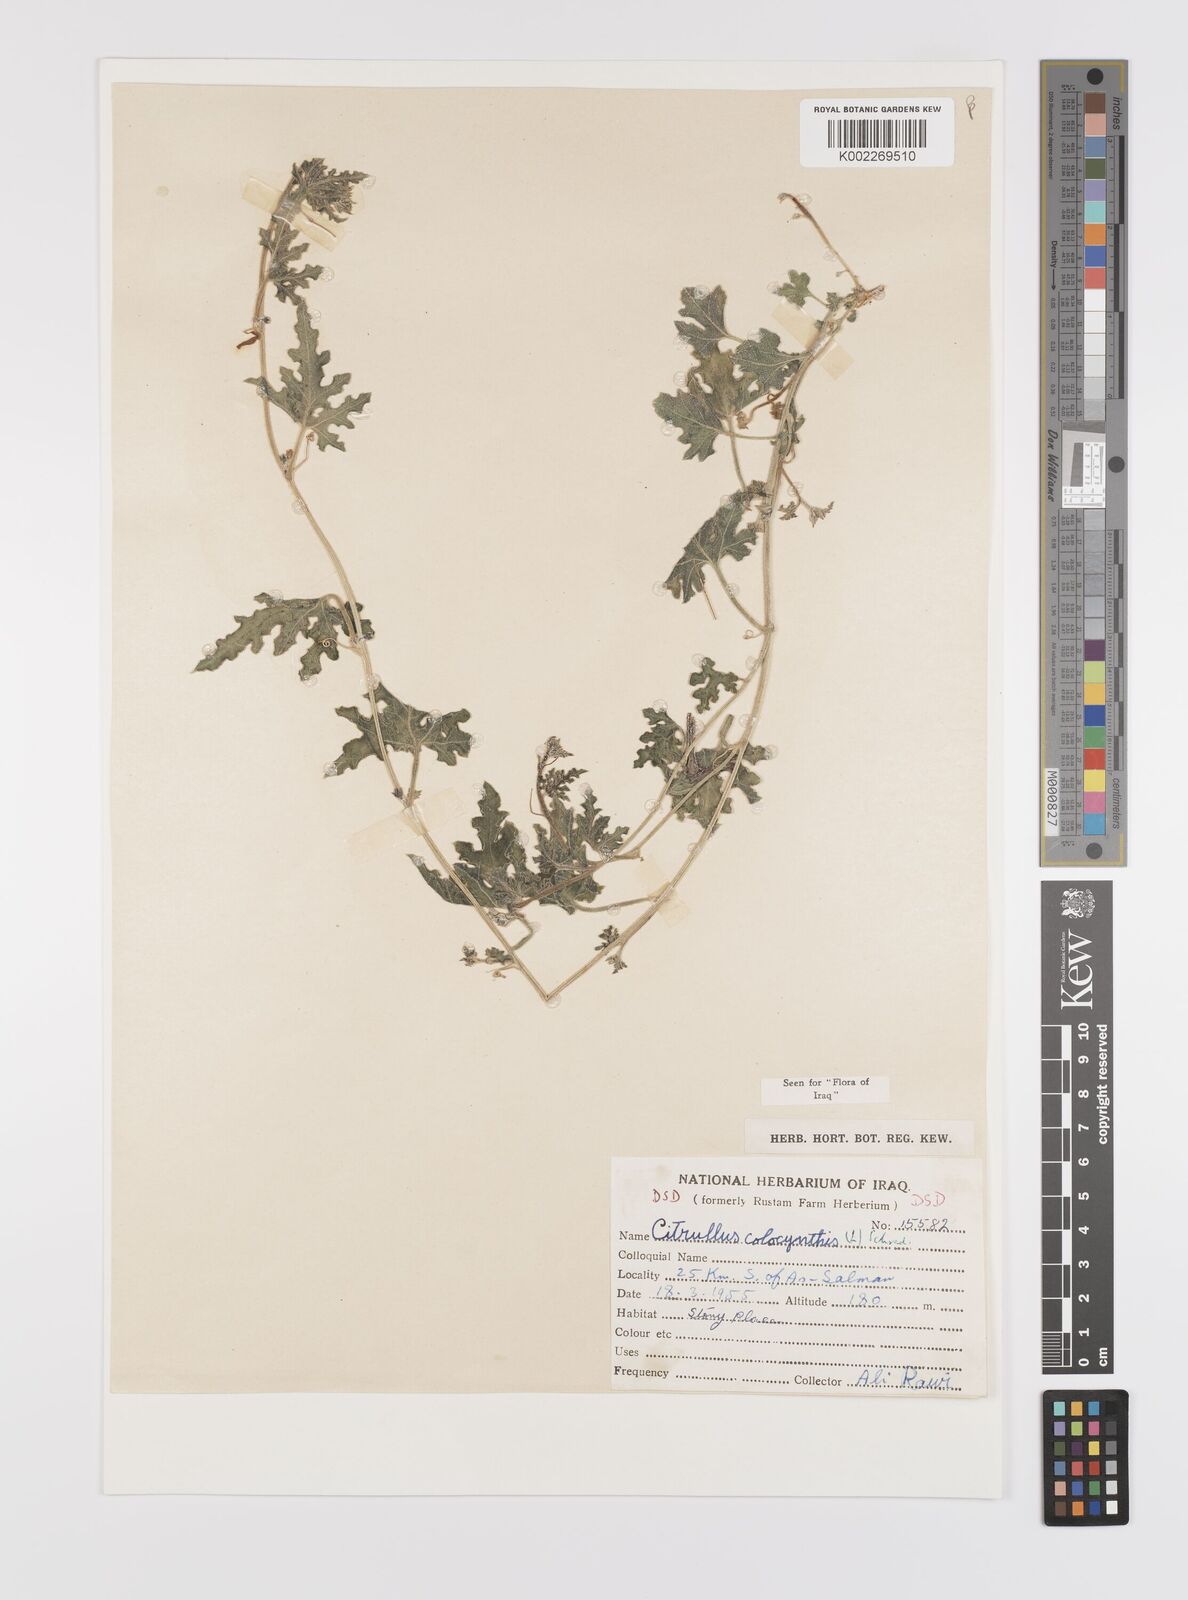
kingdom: Plantae
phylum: Tracheophyta
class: Magnoliopsida
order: Cucurbitales
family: Cucurbitaceae
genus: Citrullus
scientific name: Citrullus colocynthis
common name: Colocynth
